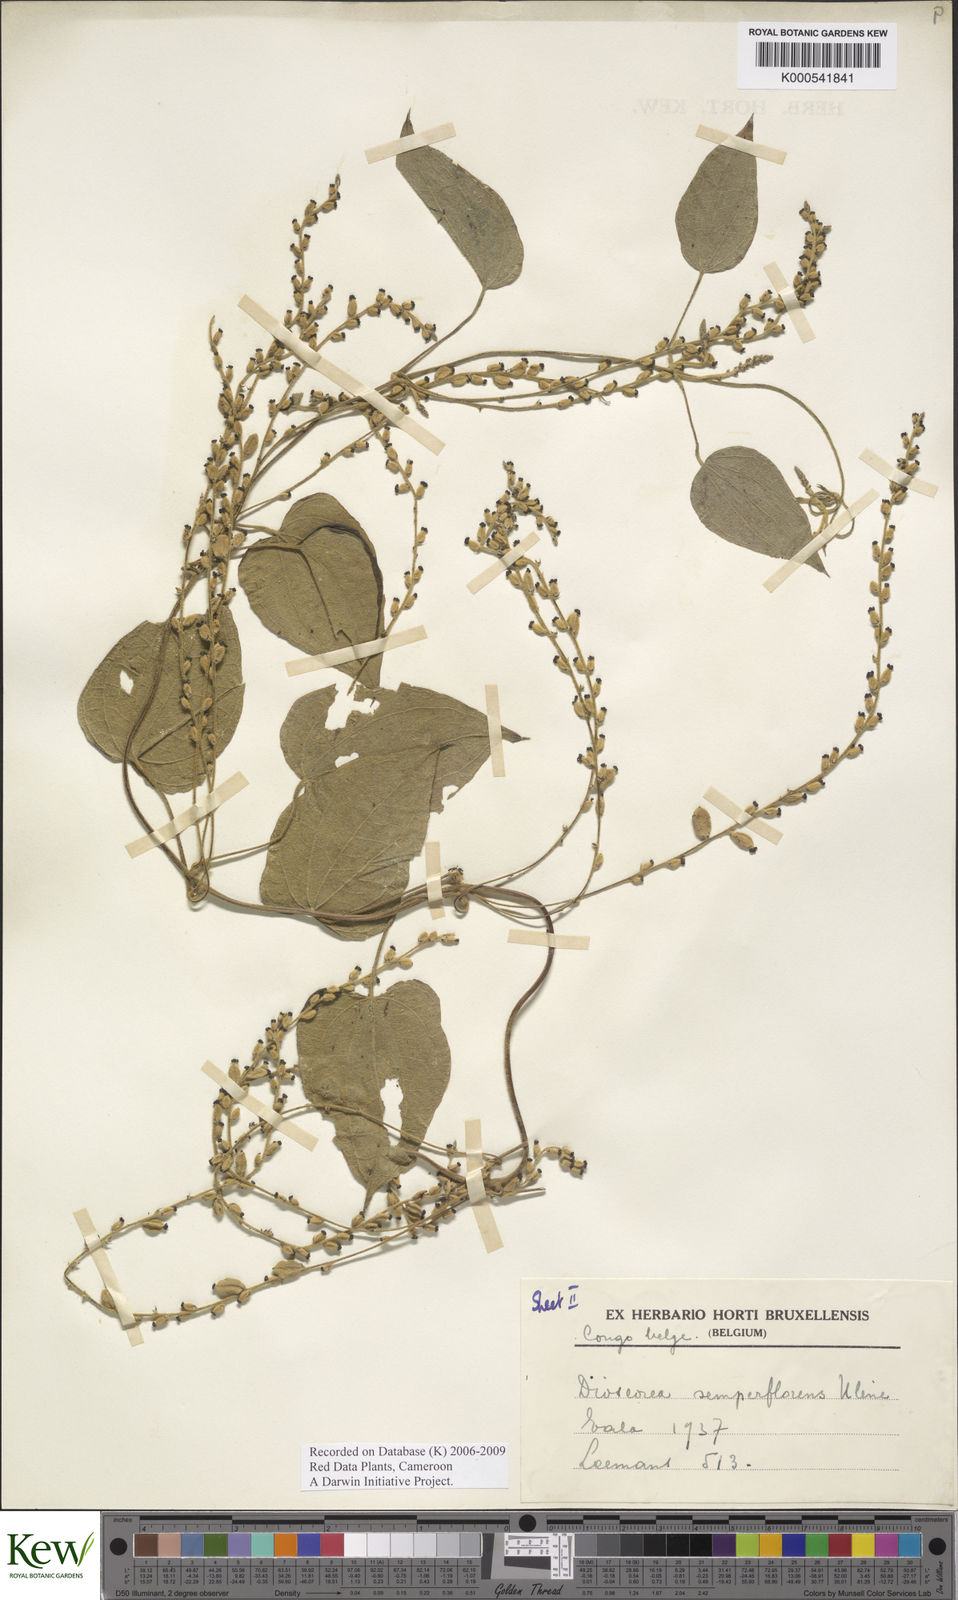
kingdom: Plantae
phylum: Tracheophyta
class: Liliopsida
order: Dioscoreales
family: Dioscoreaceae
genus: Dioscorea
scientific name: Dioscorea semperflorens
